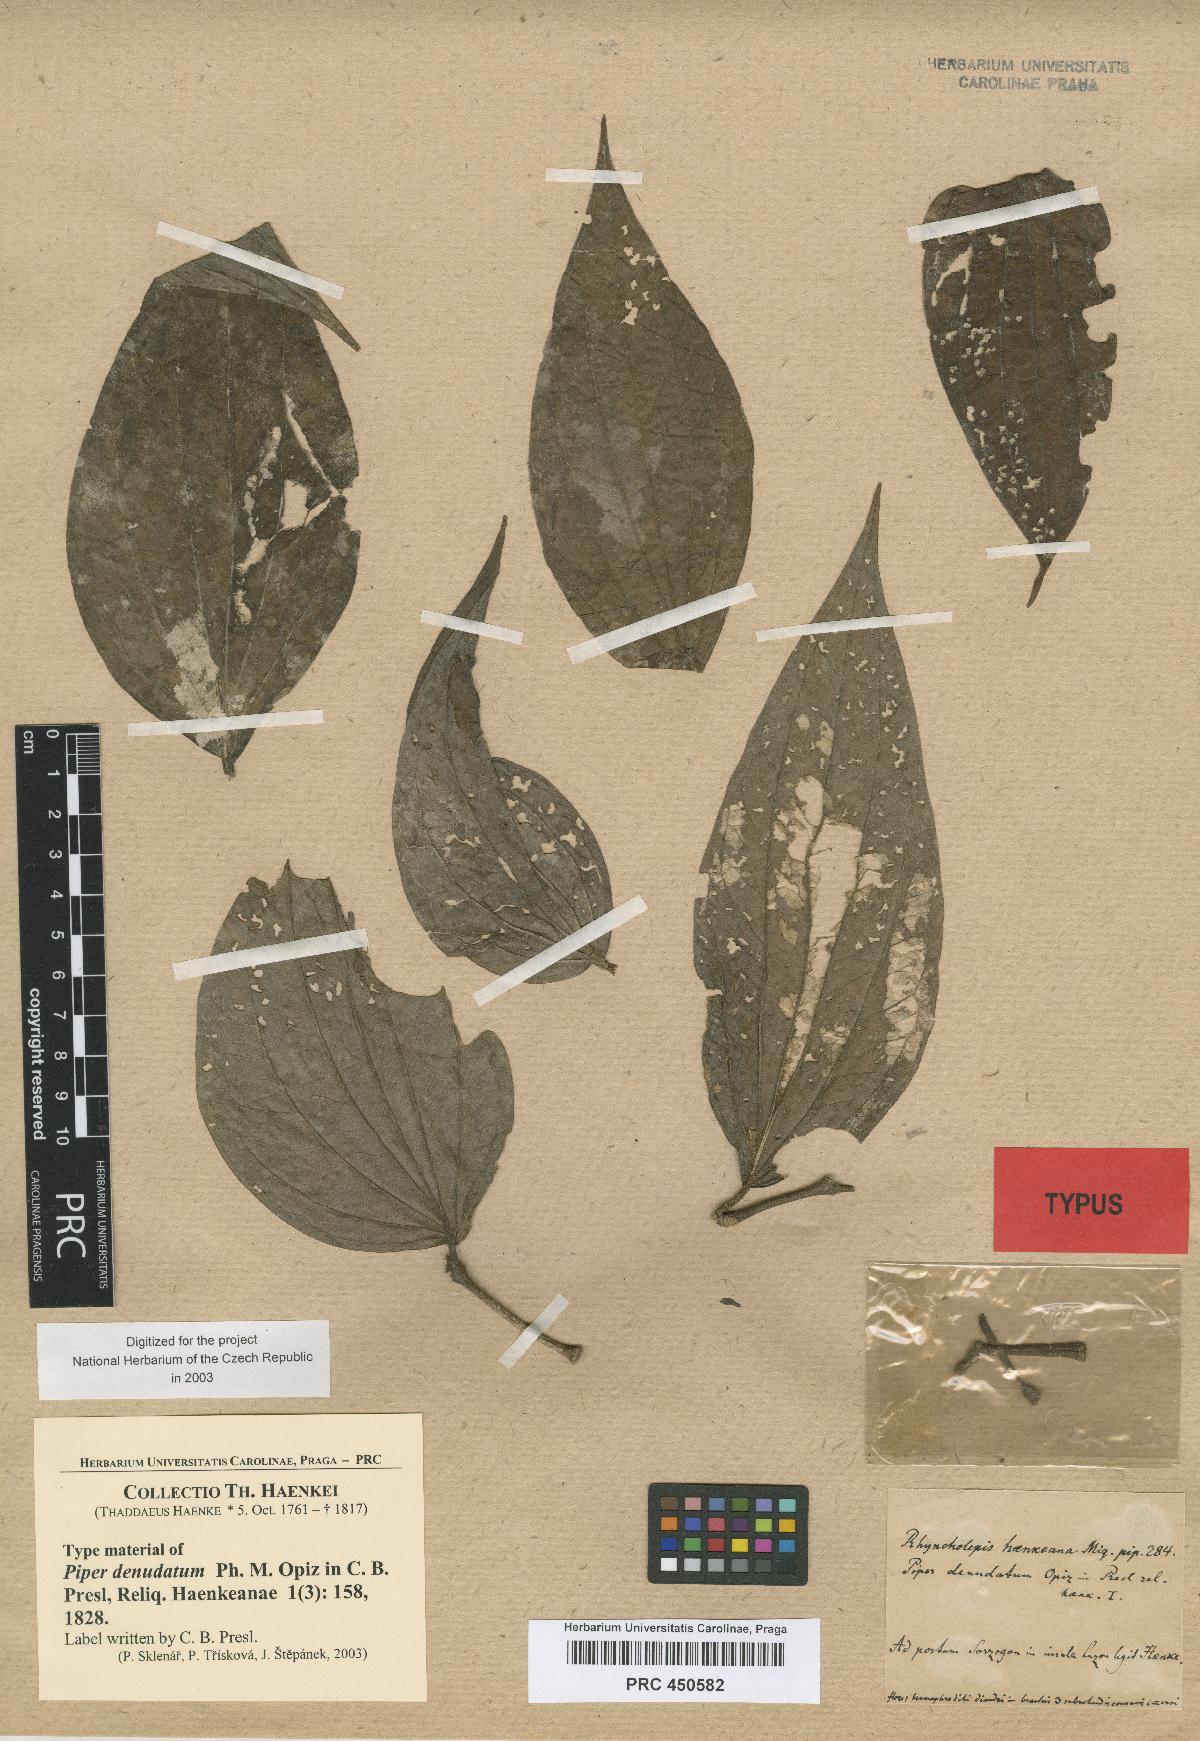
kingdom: Plantae
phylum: Tracheophyta
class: Magnoliopsida
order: Piperales
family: Piperaceae
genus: Piper
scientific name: Piper nigrum
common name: Black pepper
